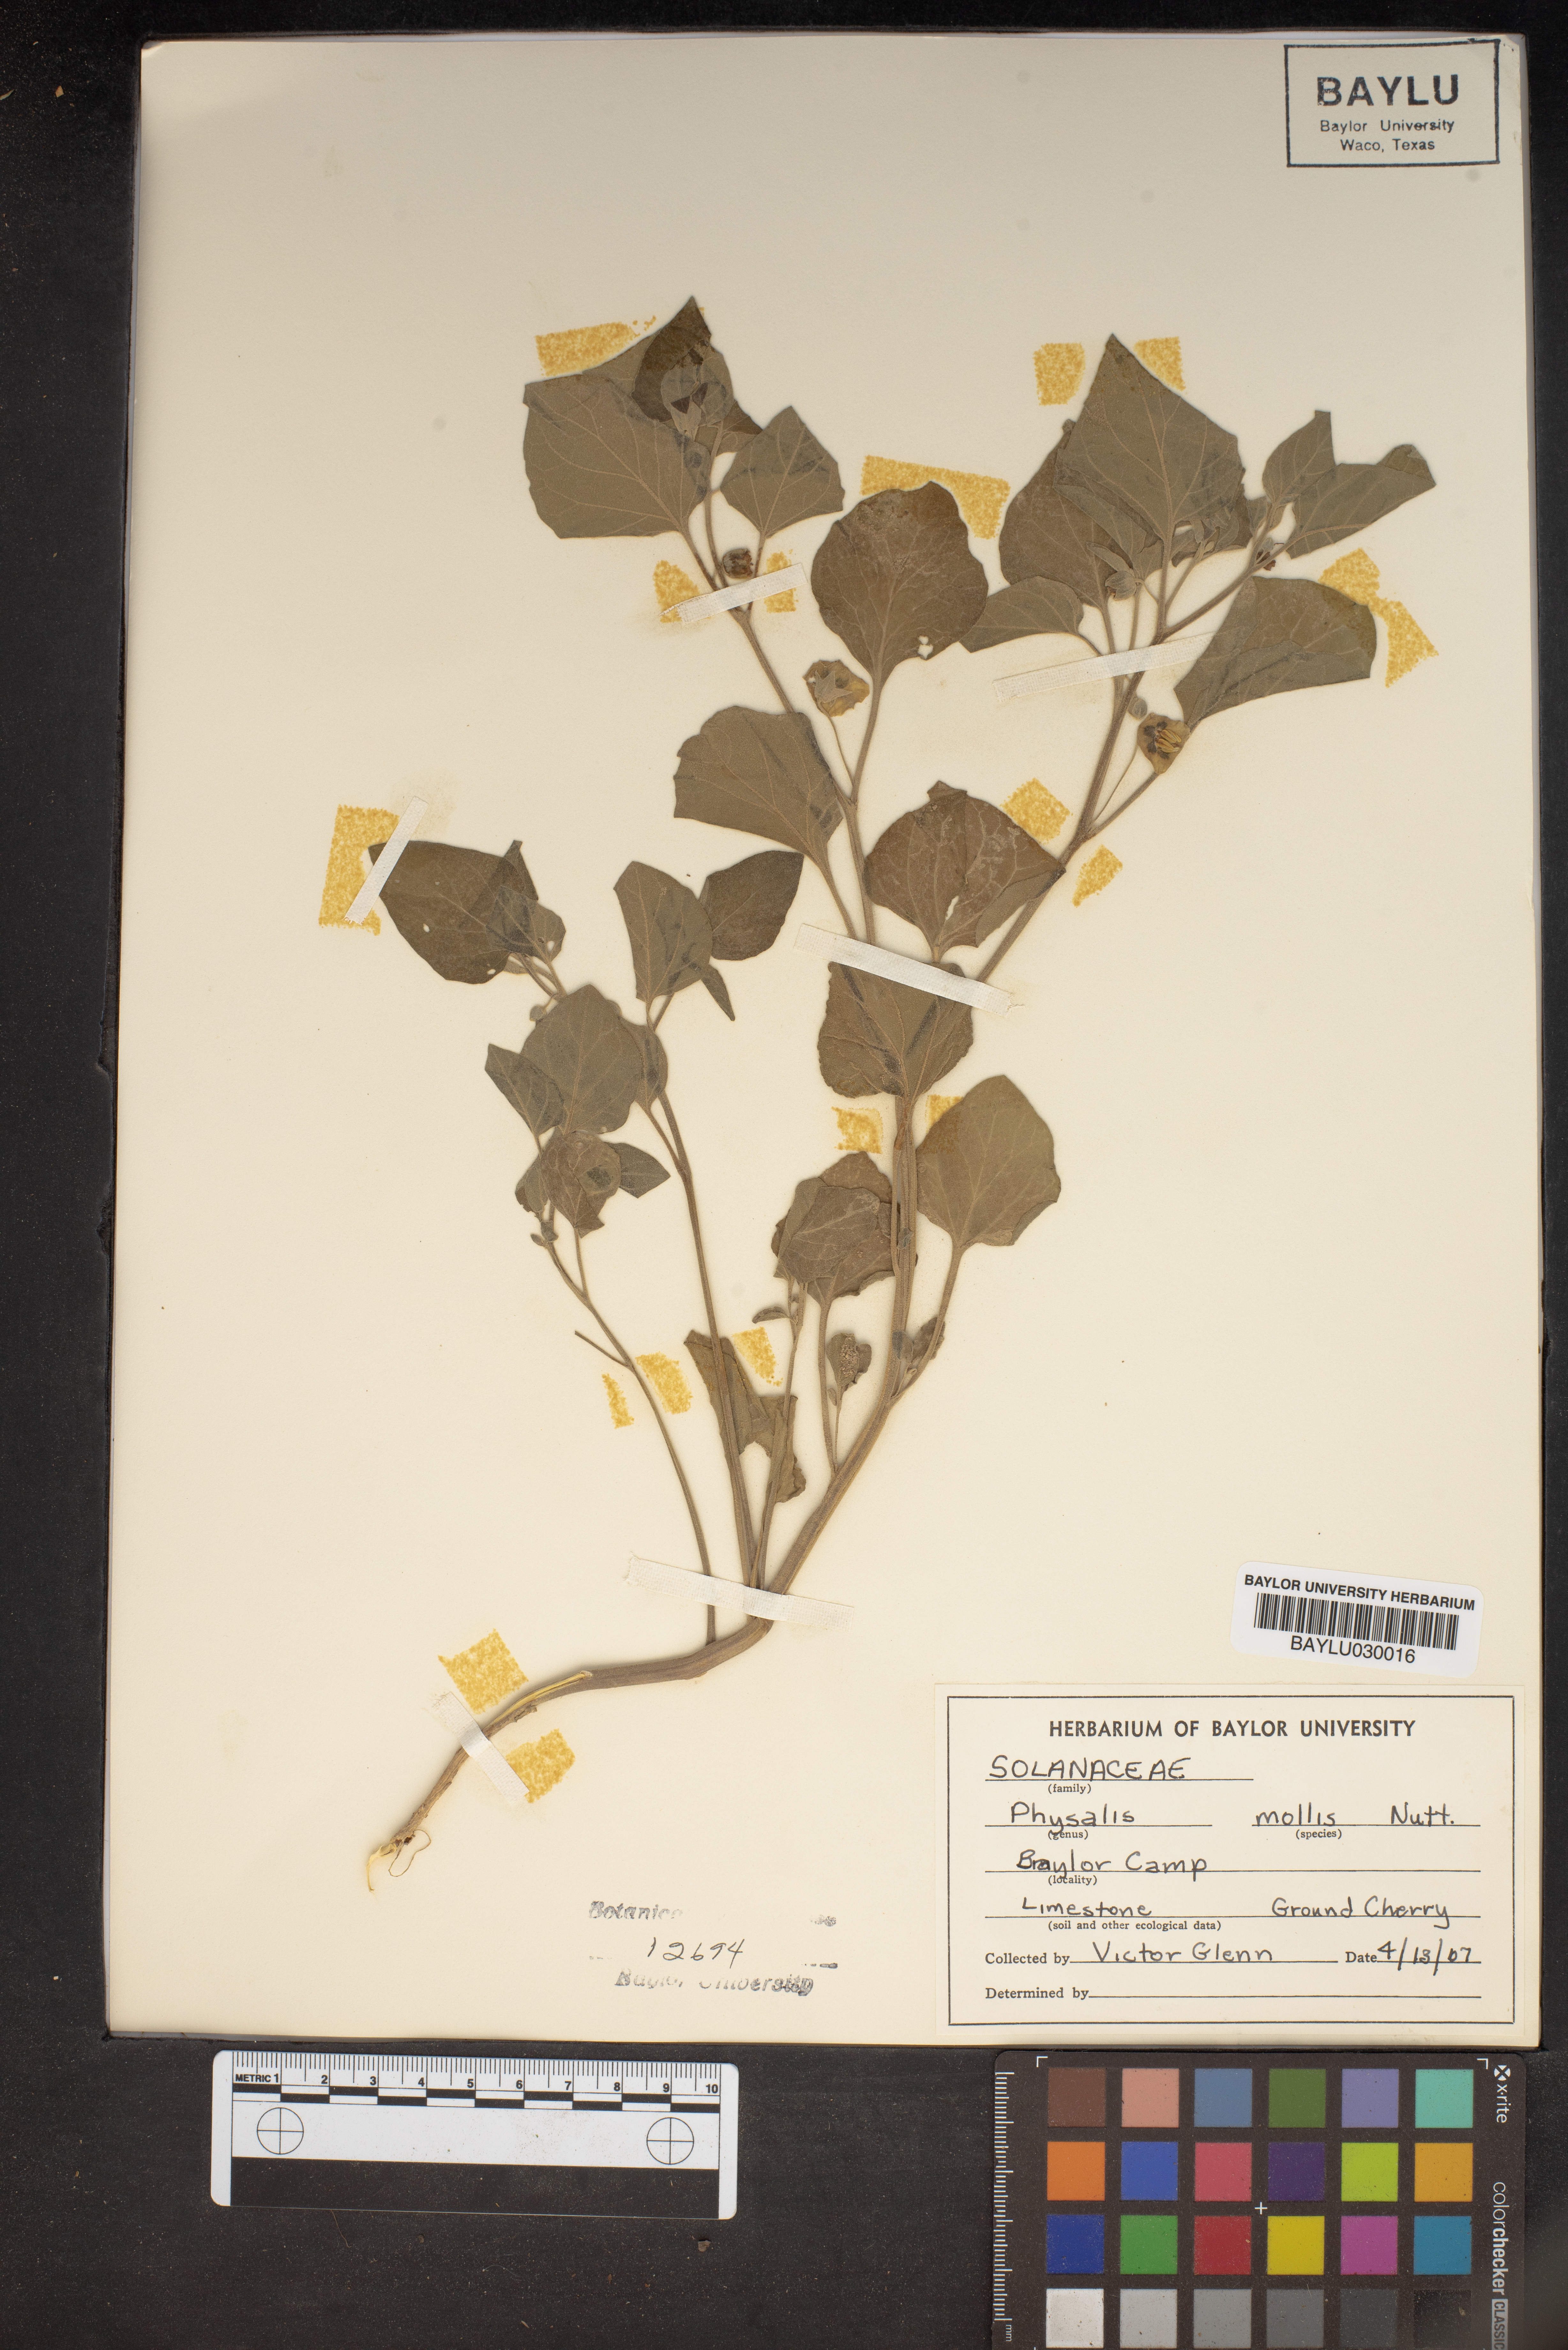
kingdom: Plantae
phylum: Tracheophyta
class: Magnoliopsida
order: Solanales
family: Solanaceae
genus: Physalis
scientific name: Physalis mollis
